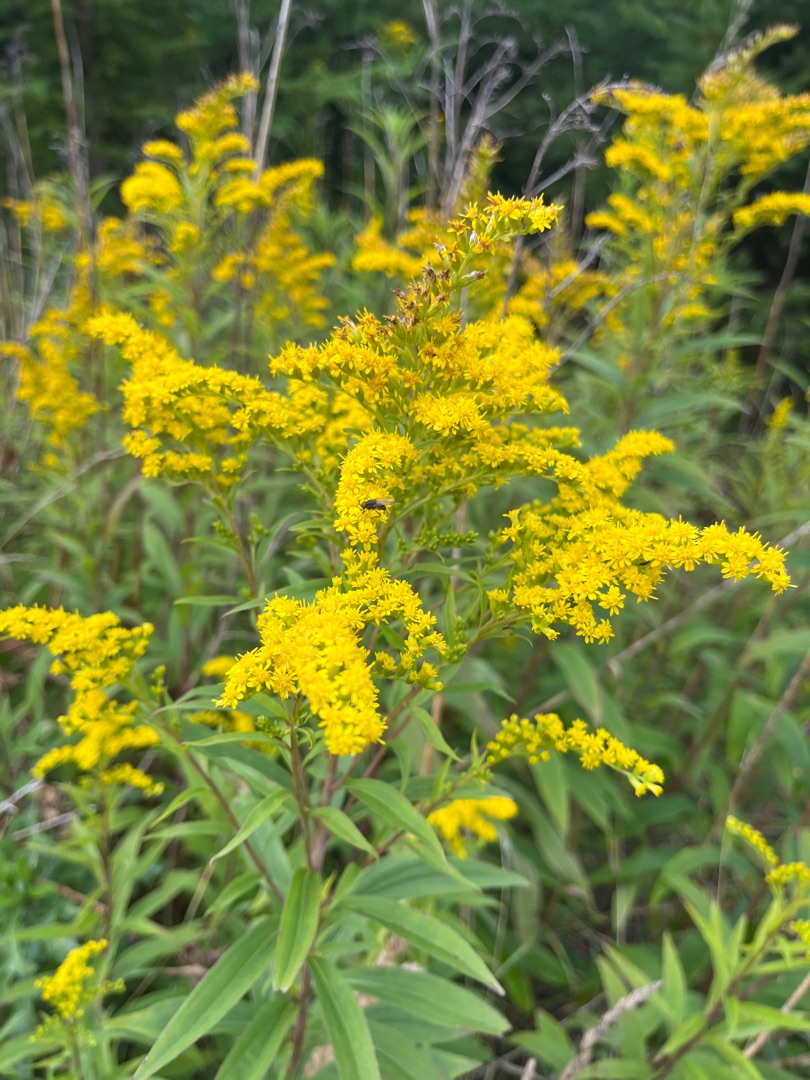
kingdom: Plantae
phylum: Tracheophyta
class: Magnoliopsida
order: Asterales
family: Asteraceae
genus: Solidago
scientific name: Solidago gigantea
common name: Sildig gyldenris
